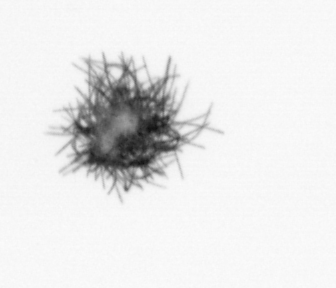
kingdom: Bacteria
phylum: Cyanobacteria
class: Cyanobacteriia
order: Cyanobacteriales
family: Microcoleaceae
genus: Trichodesmium
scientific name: Trichodesmium
